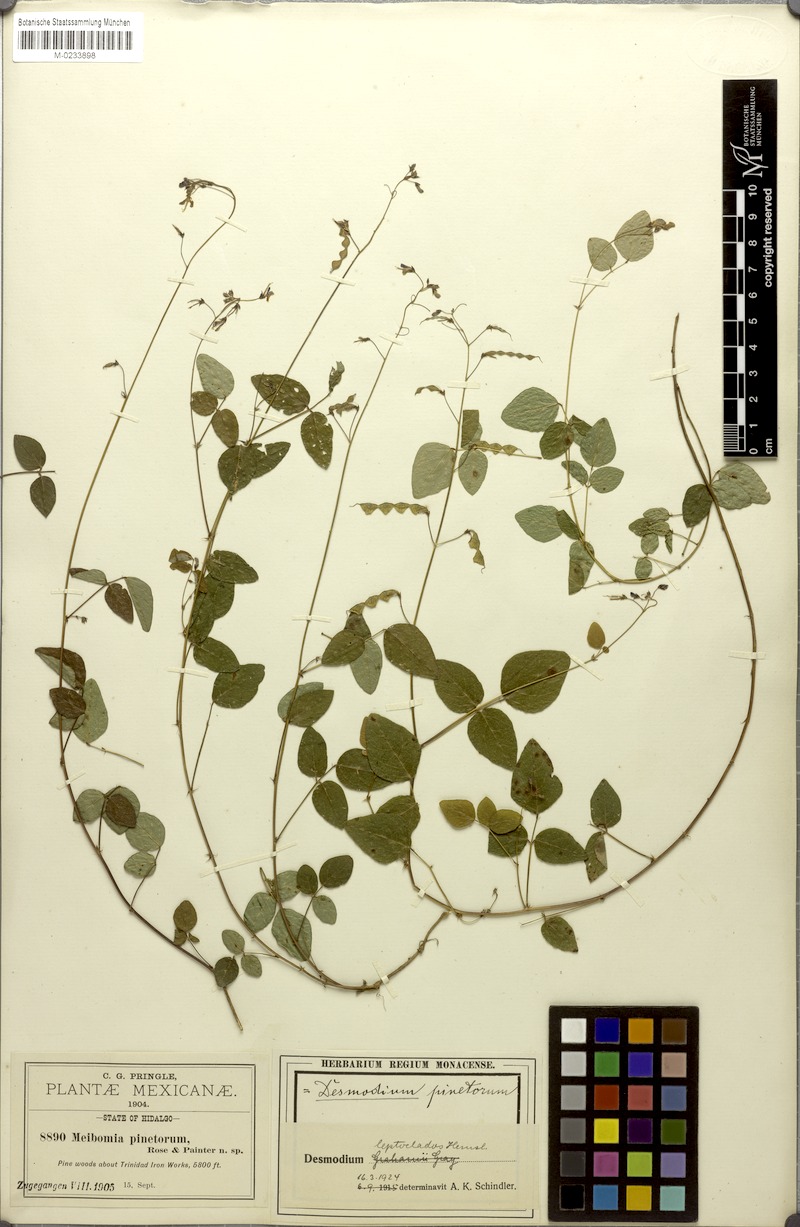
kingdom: Plantae
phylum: Tracheophyta
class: Magnoliopsida
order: Fabales
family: Fabaceae
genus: Desmodium
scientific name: Desmodium leptoclados
